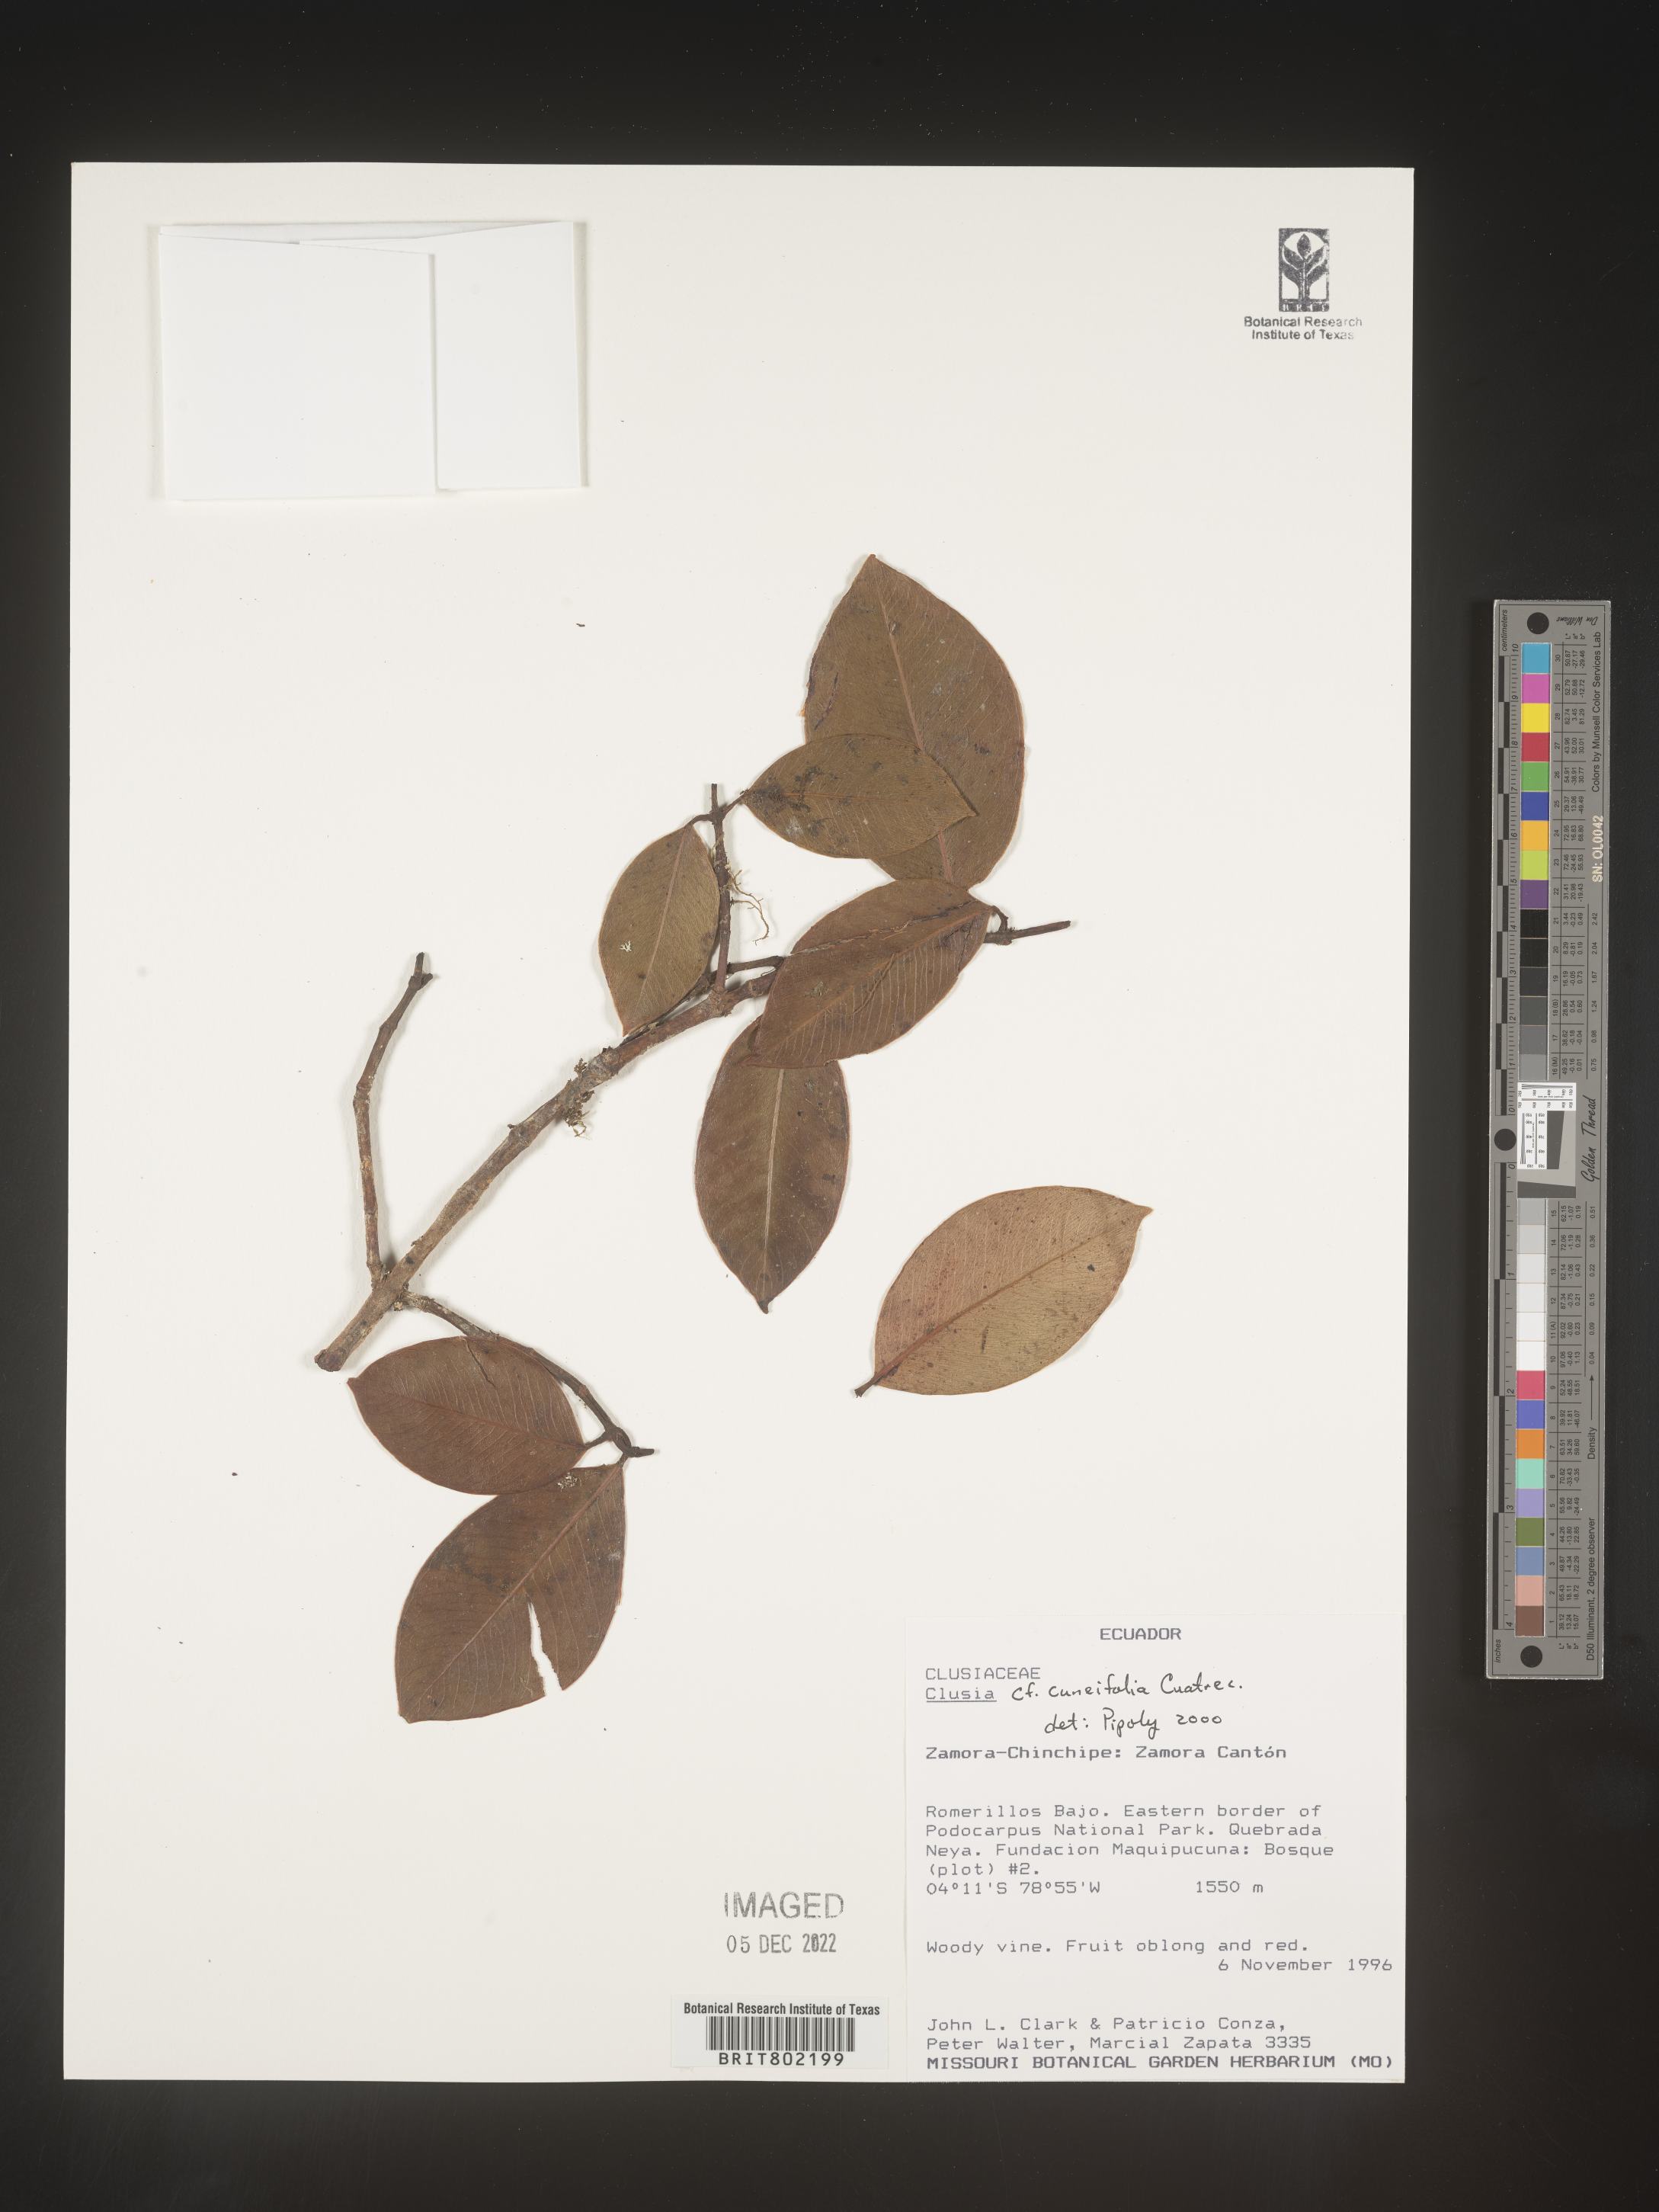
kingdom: Plantae
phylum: Tracheophyta
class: Magnoliopsida
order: Malpighiales
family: Clusiaceae
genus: Clusia
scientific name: Clusia
